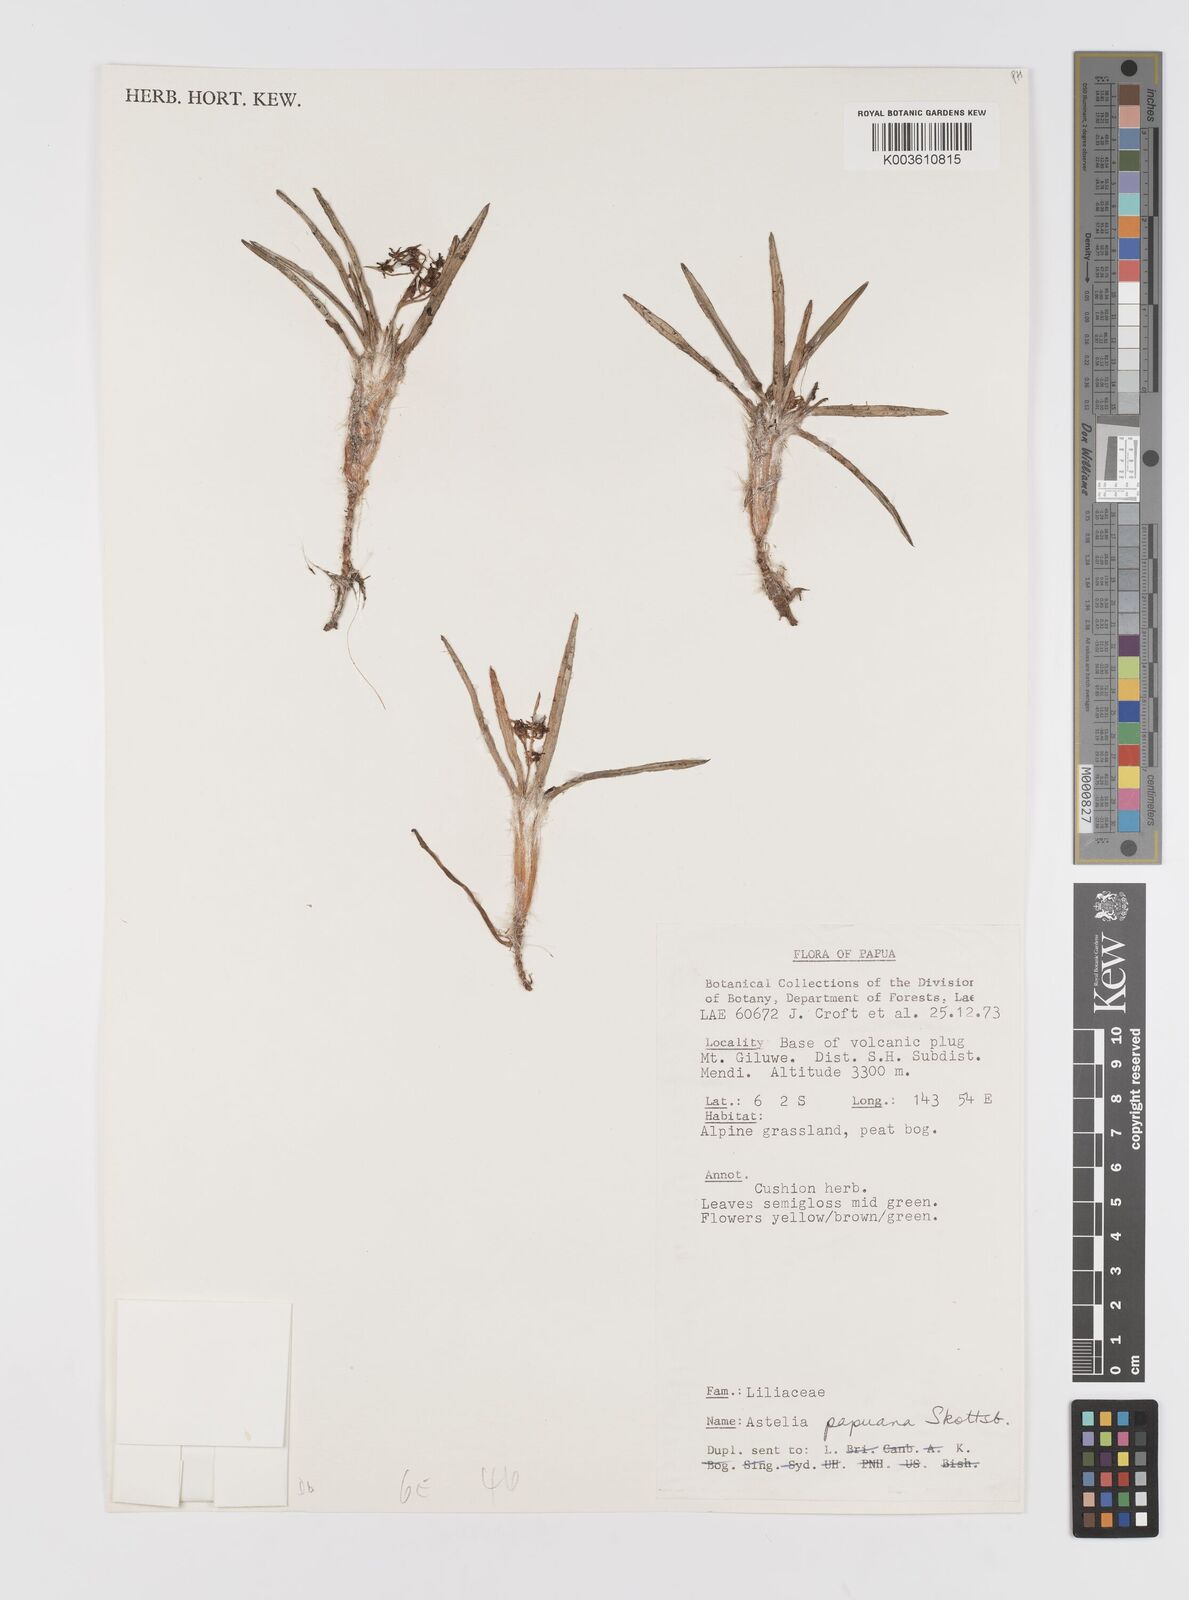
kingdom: Plantae
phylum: Tracheophyta
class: Liliopsida
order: Asparagales
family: Asteliaceae
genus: Astelia
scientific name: Astelia papuana
